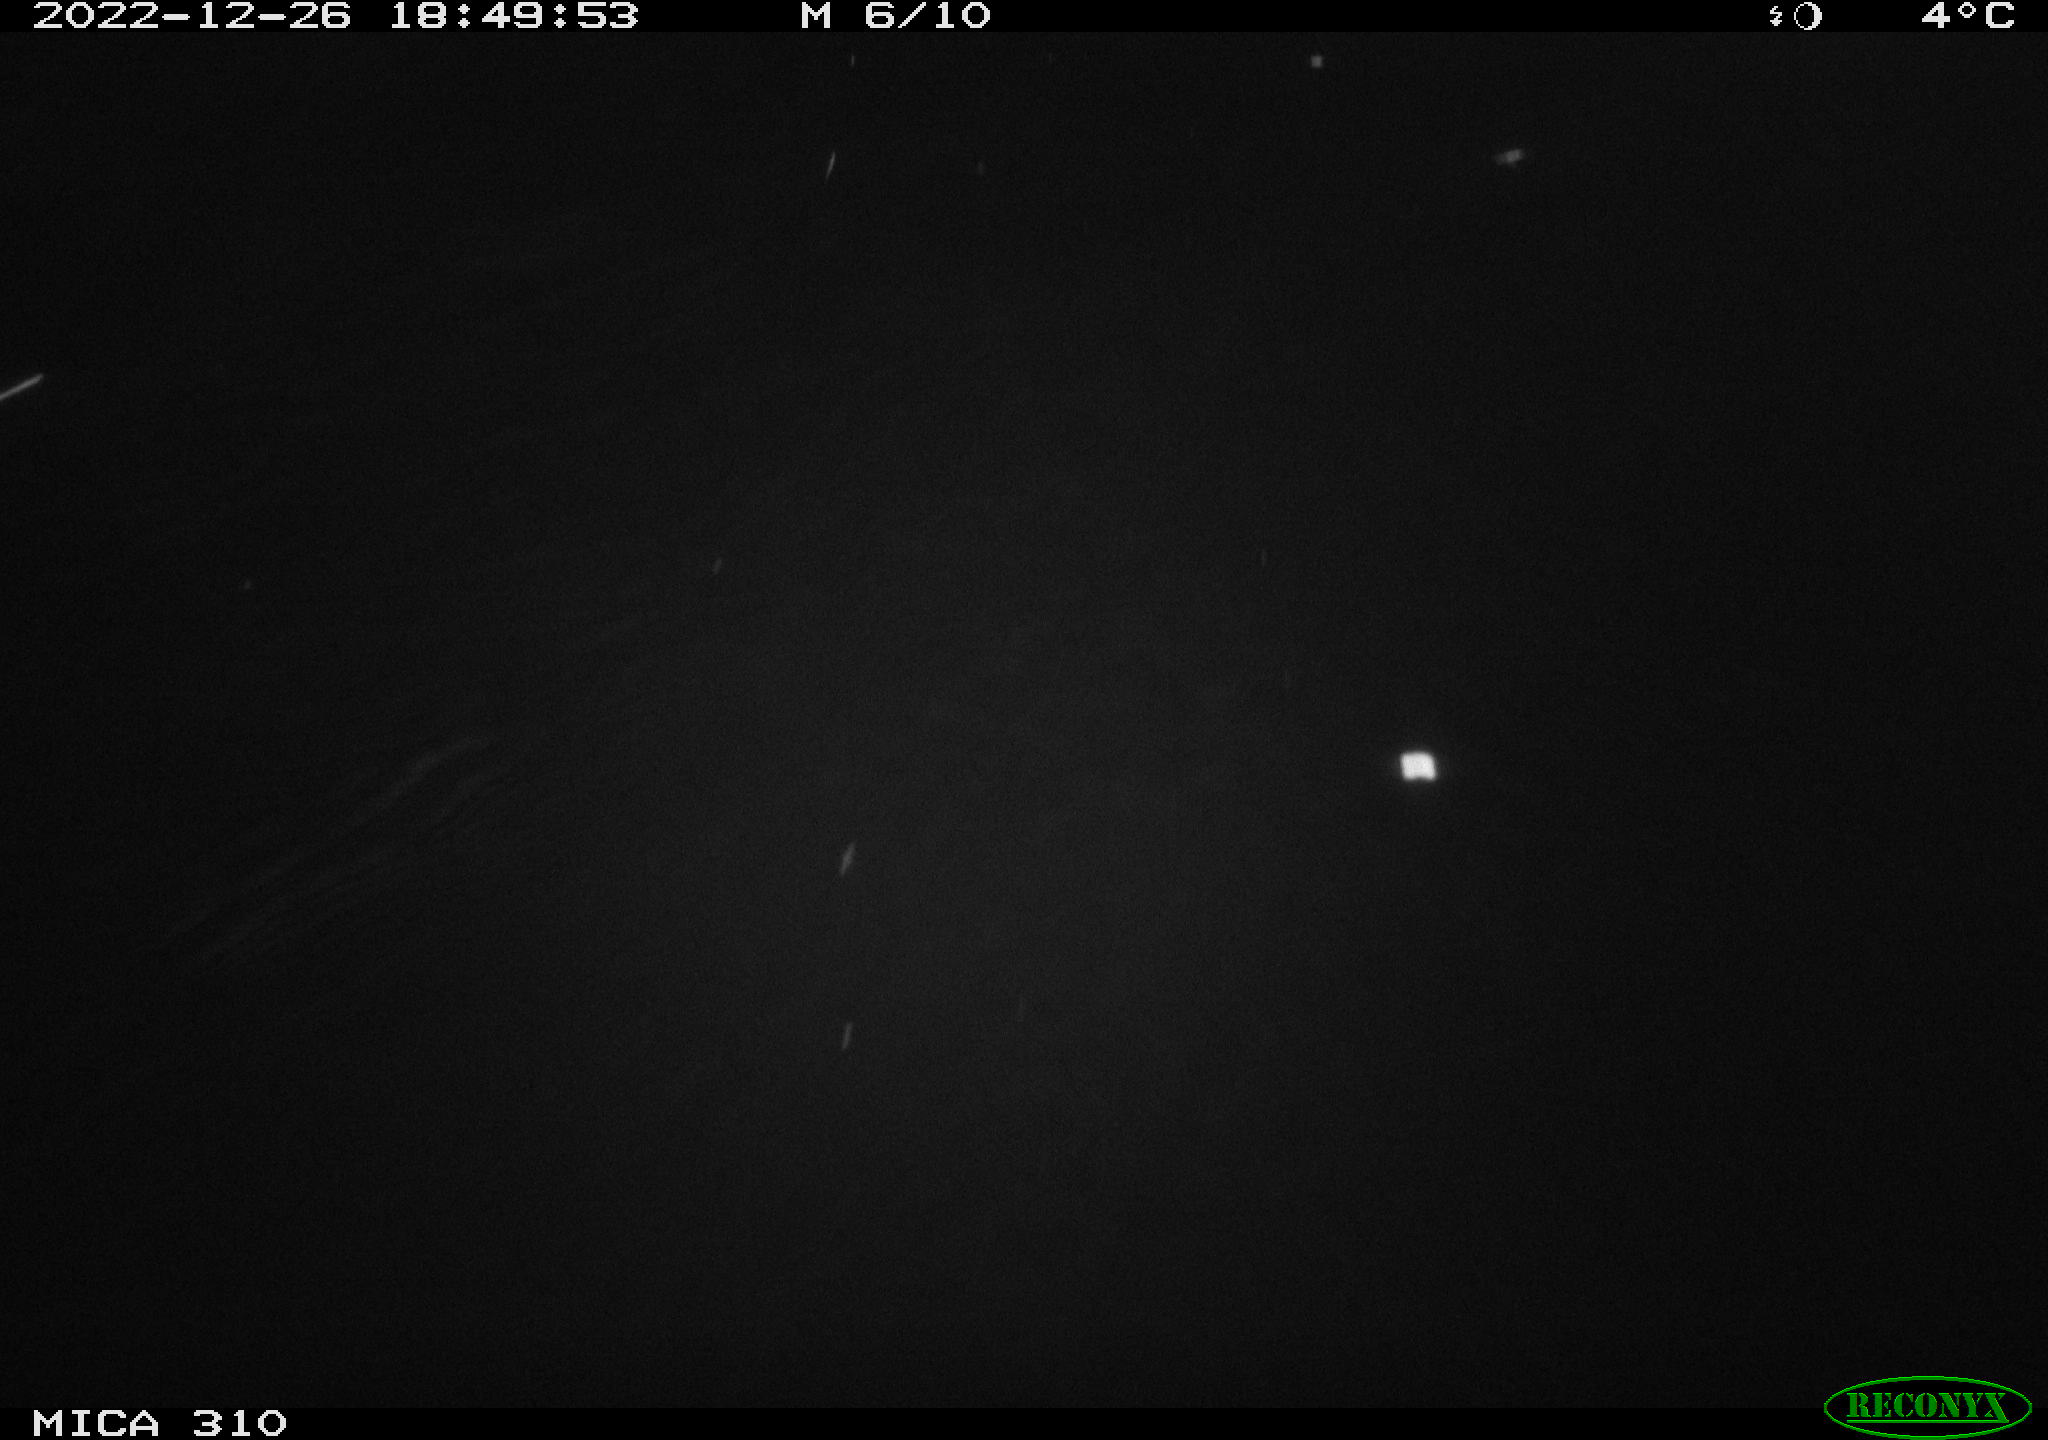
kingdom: Animalia
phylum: Chordata
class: Mammalia
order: Rodentia
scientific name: Rodentia
